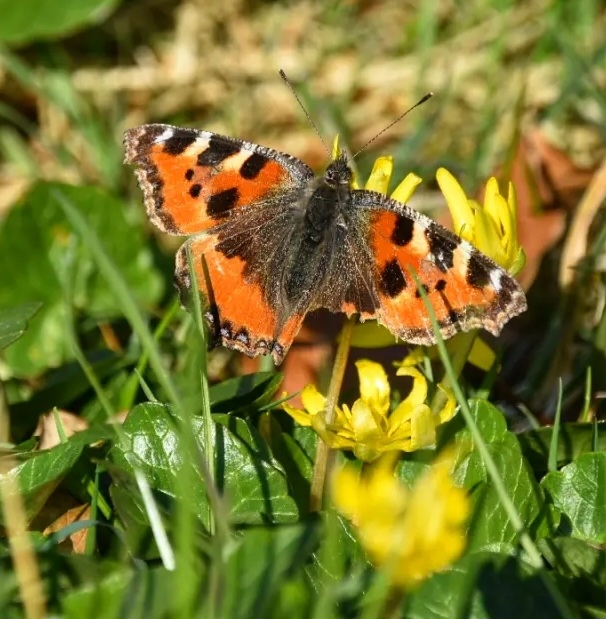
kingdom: Animalia
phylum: Arthropoda
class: Insecta
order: Lepidoptera
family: Nymphalidae
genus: Aglais
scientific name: Aglais urticae
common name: Nældens takvinge
